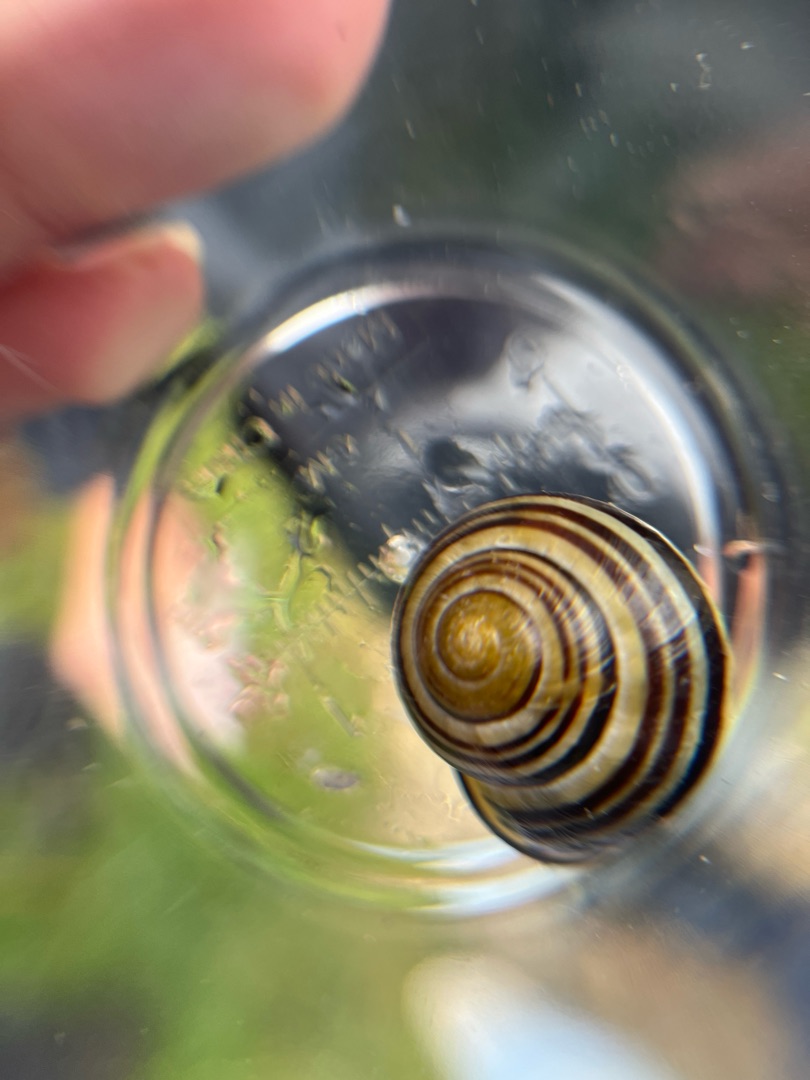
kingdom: Animalia
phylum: Mollusca
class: Gastropoda
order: Stylommatophora
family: Helicidae
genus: Cepaea
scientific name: Cepaea nemoralis
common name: Lundsnegl
